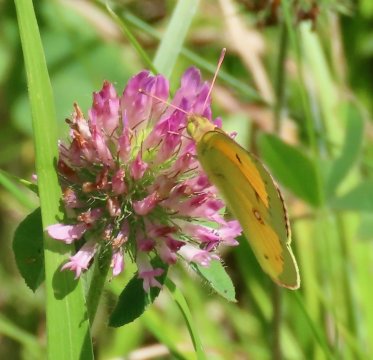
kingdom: Animalia
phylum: Arthropoda
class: Insecta
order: Lepidoptera
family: Pieridae
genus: Colias
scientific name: Colias eurytheme
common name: Orange Sulphur
